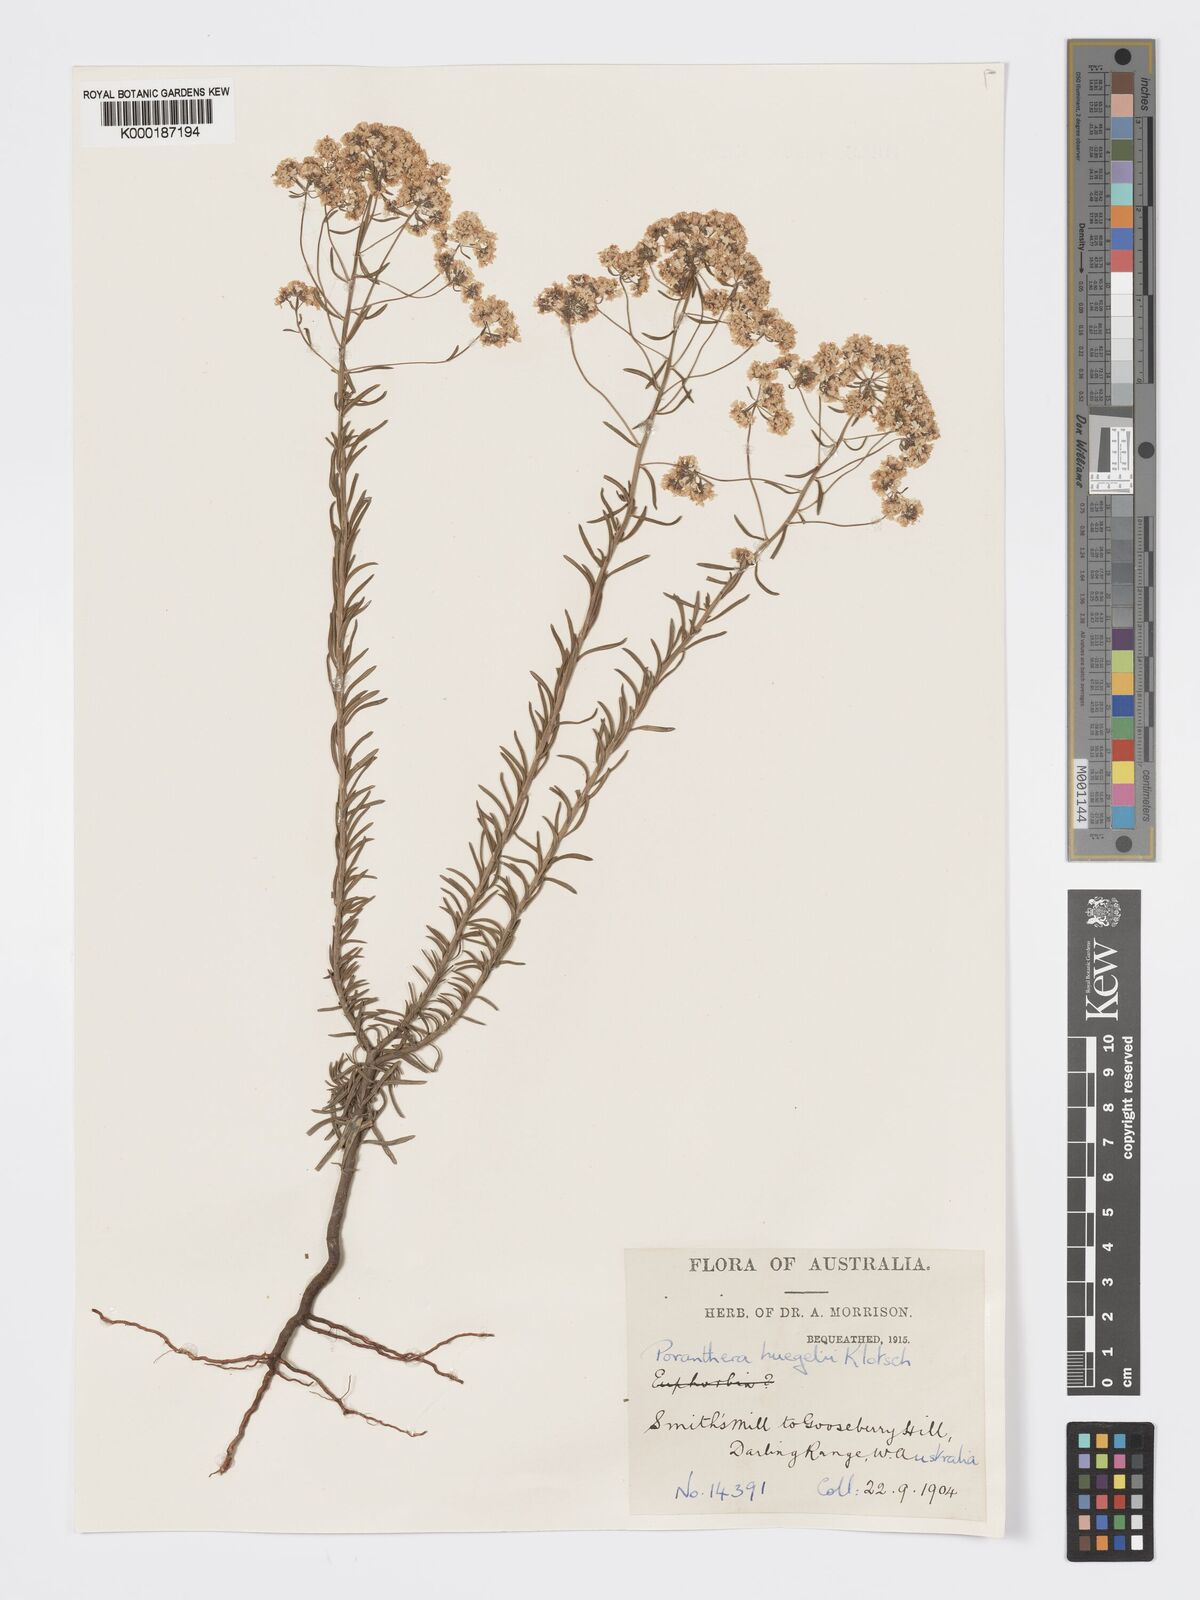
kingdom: Plantae
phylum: Tracheophyta
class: Magnoliopsida
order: Malpighiales
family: Phyllanthaceae
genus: Poranthera
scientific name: Poranthera huegelii
